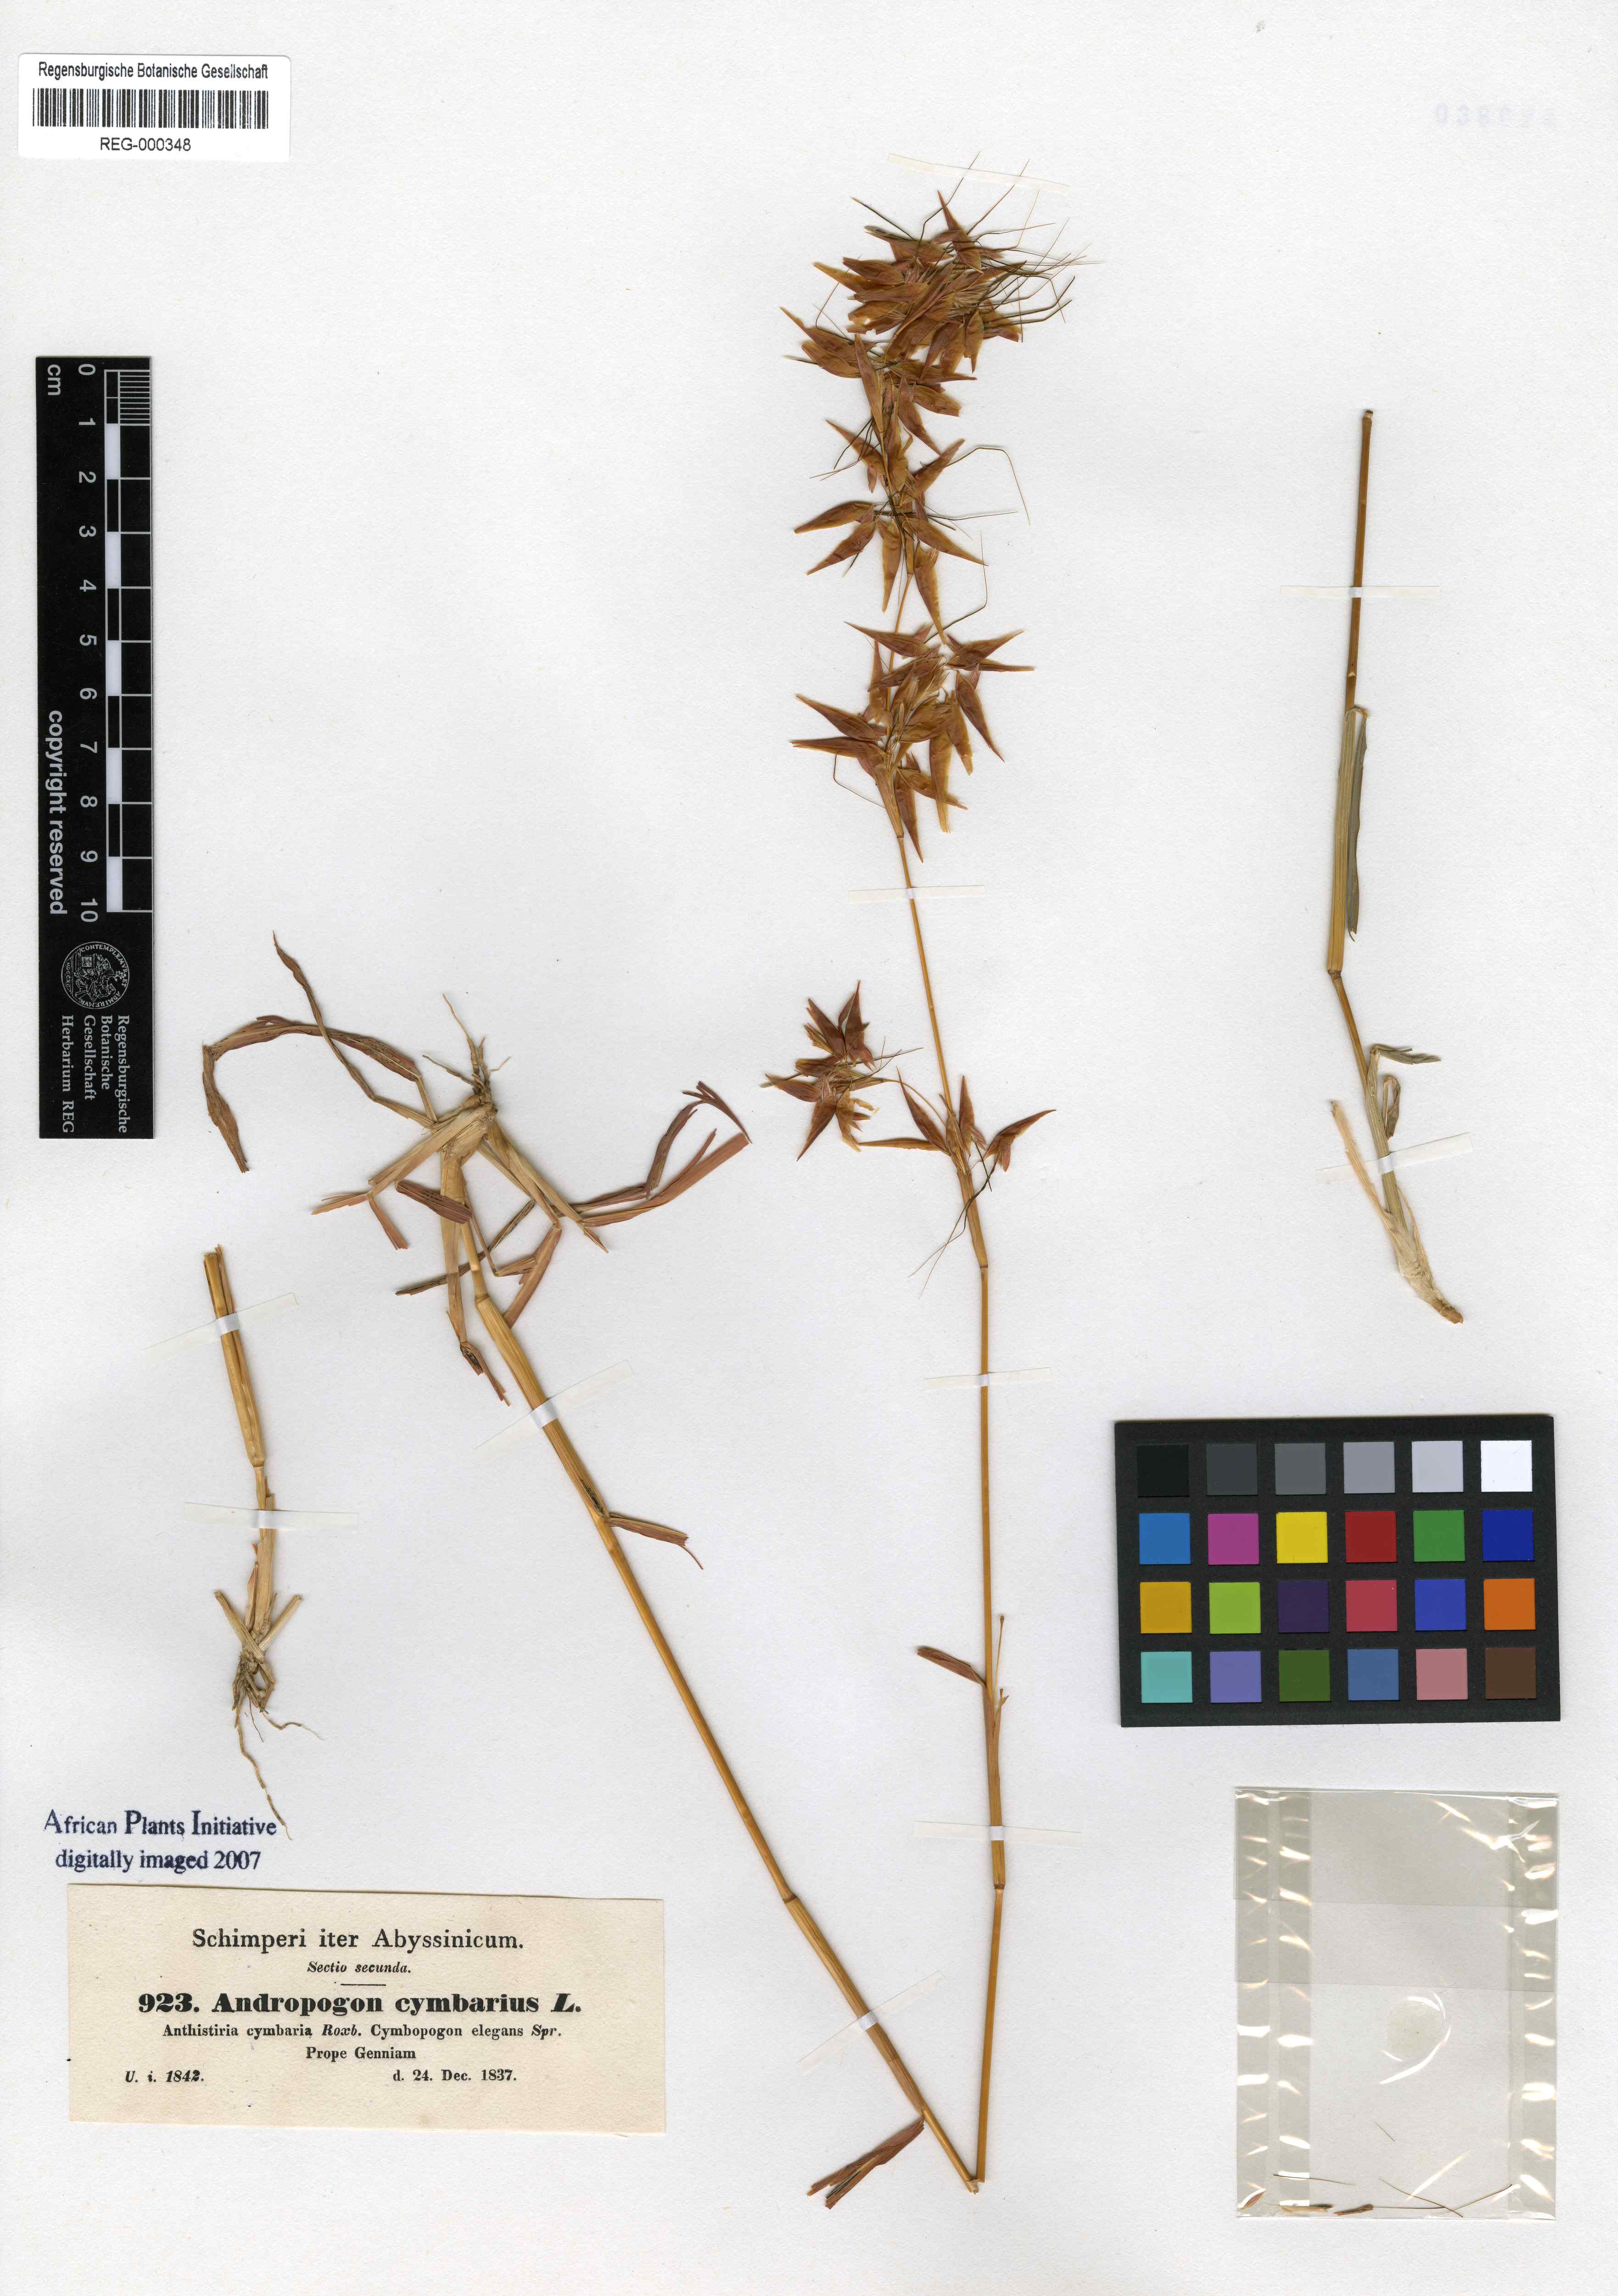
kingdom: Plantae
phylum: Tracheophyta
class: Liliopsida
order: Poales
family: Poaceae
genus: Hyparrhenia
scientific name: Hyparrhenia cymbaria
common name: Boat thatching grass
